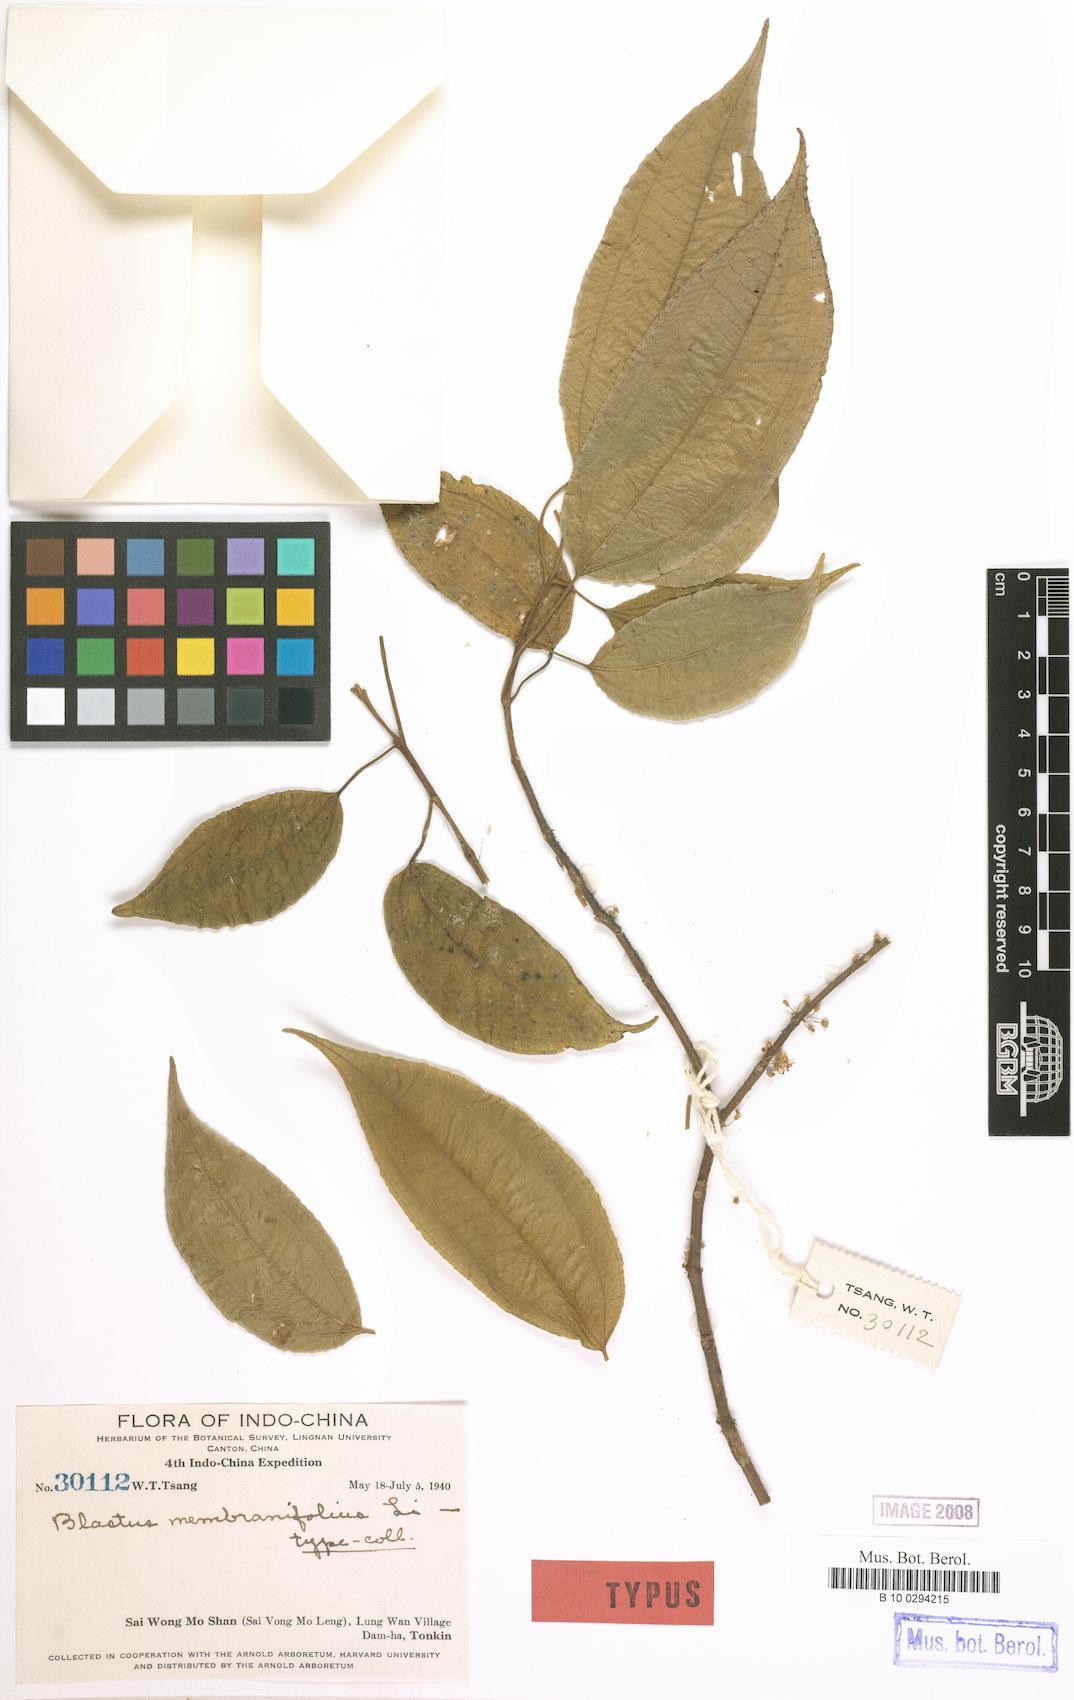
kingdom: Plantae
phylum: Tracheophyta
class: Magnoliopsida
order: Myrtales
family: Melastomataceae
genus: Stussenia
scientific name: Stussenia membranifolia
